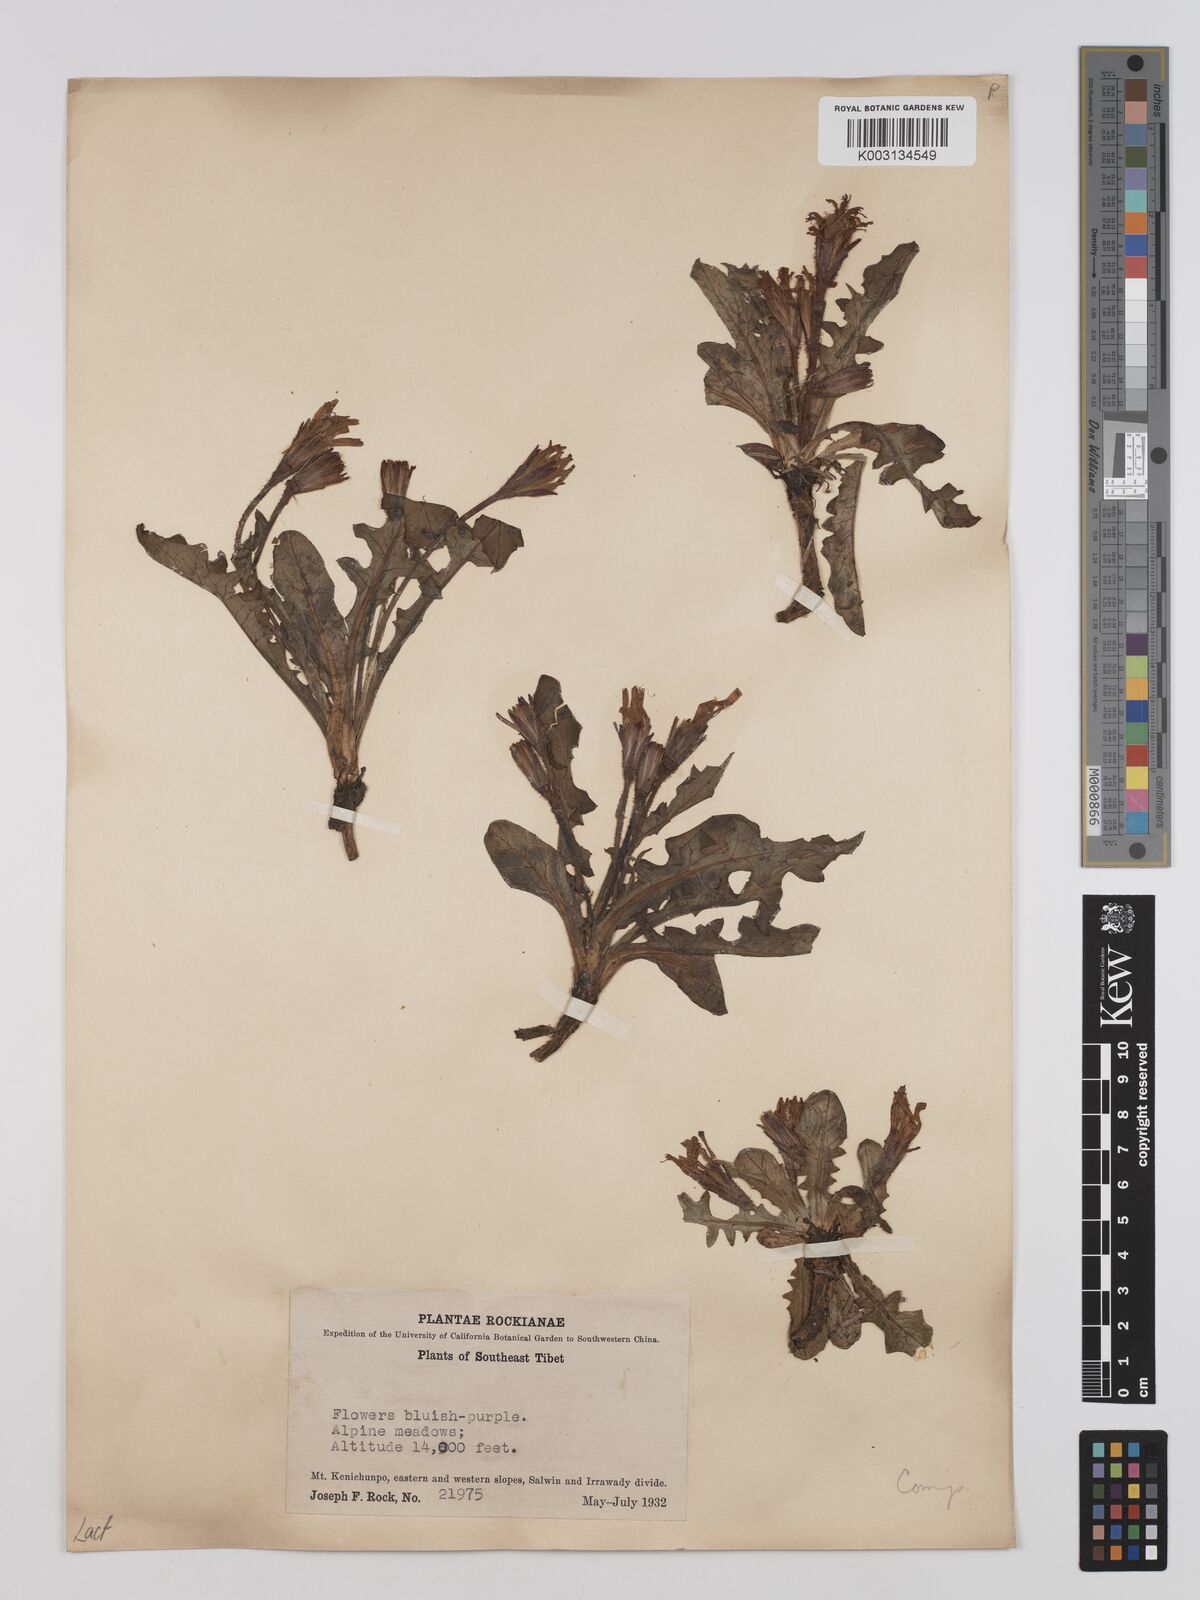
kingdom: Plantae
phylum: Tracheophyta
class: Magnoliopsida
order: Asterales
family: Asteraceae
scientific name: Asteraceae
